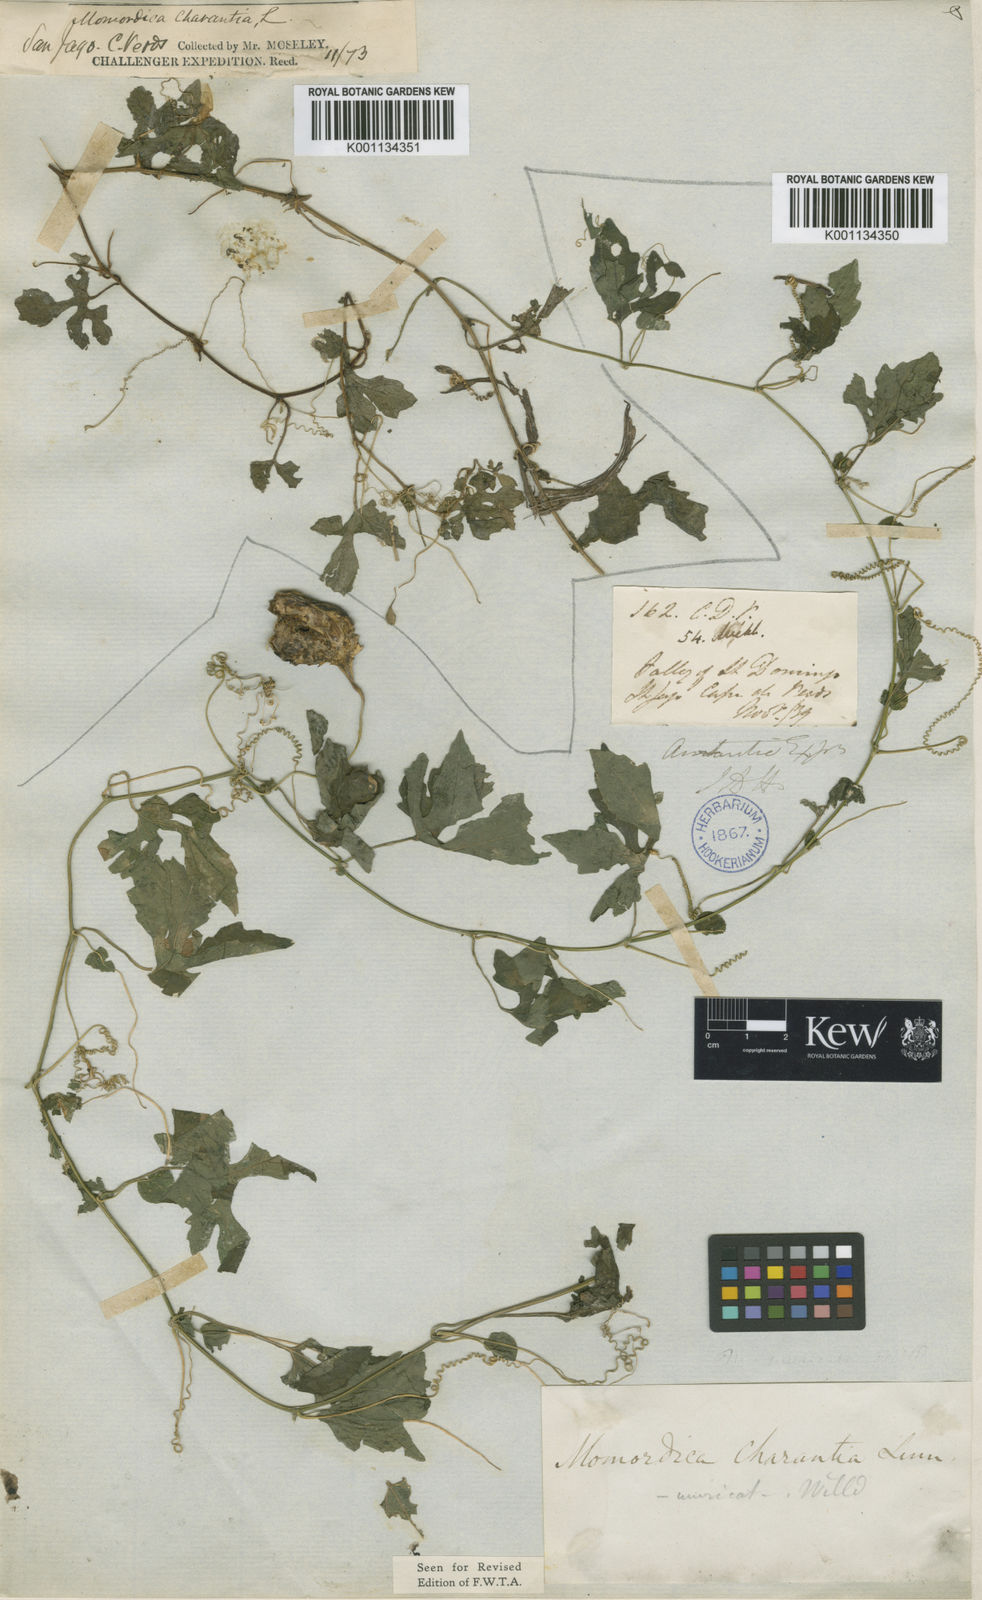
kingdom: Plantae
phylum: Tracheophyta
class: Magnoliopsida
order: Cucurbitales
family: Cucurbitaceae
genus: Momordica
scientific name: Momordica charantia
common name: Balsampear
